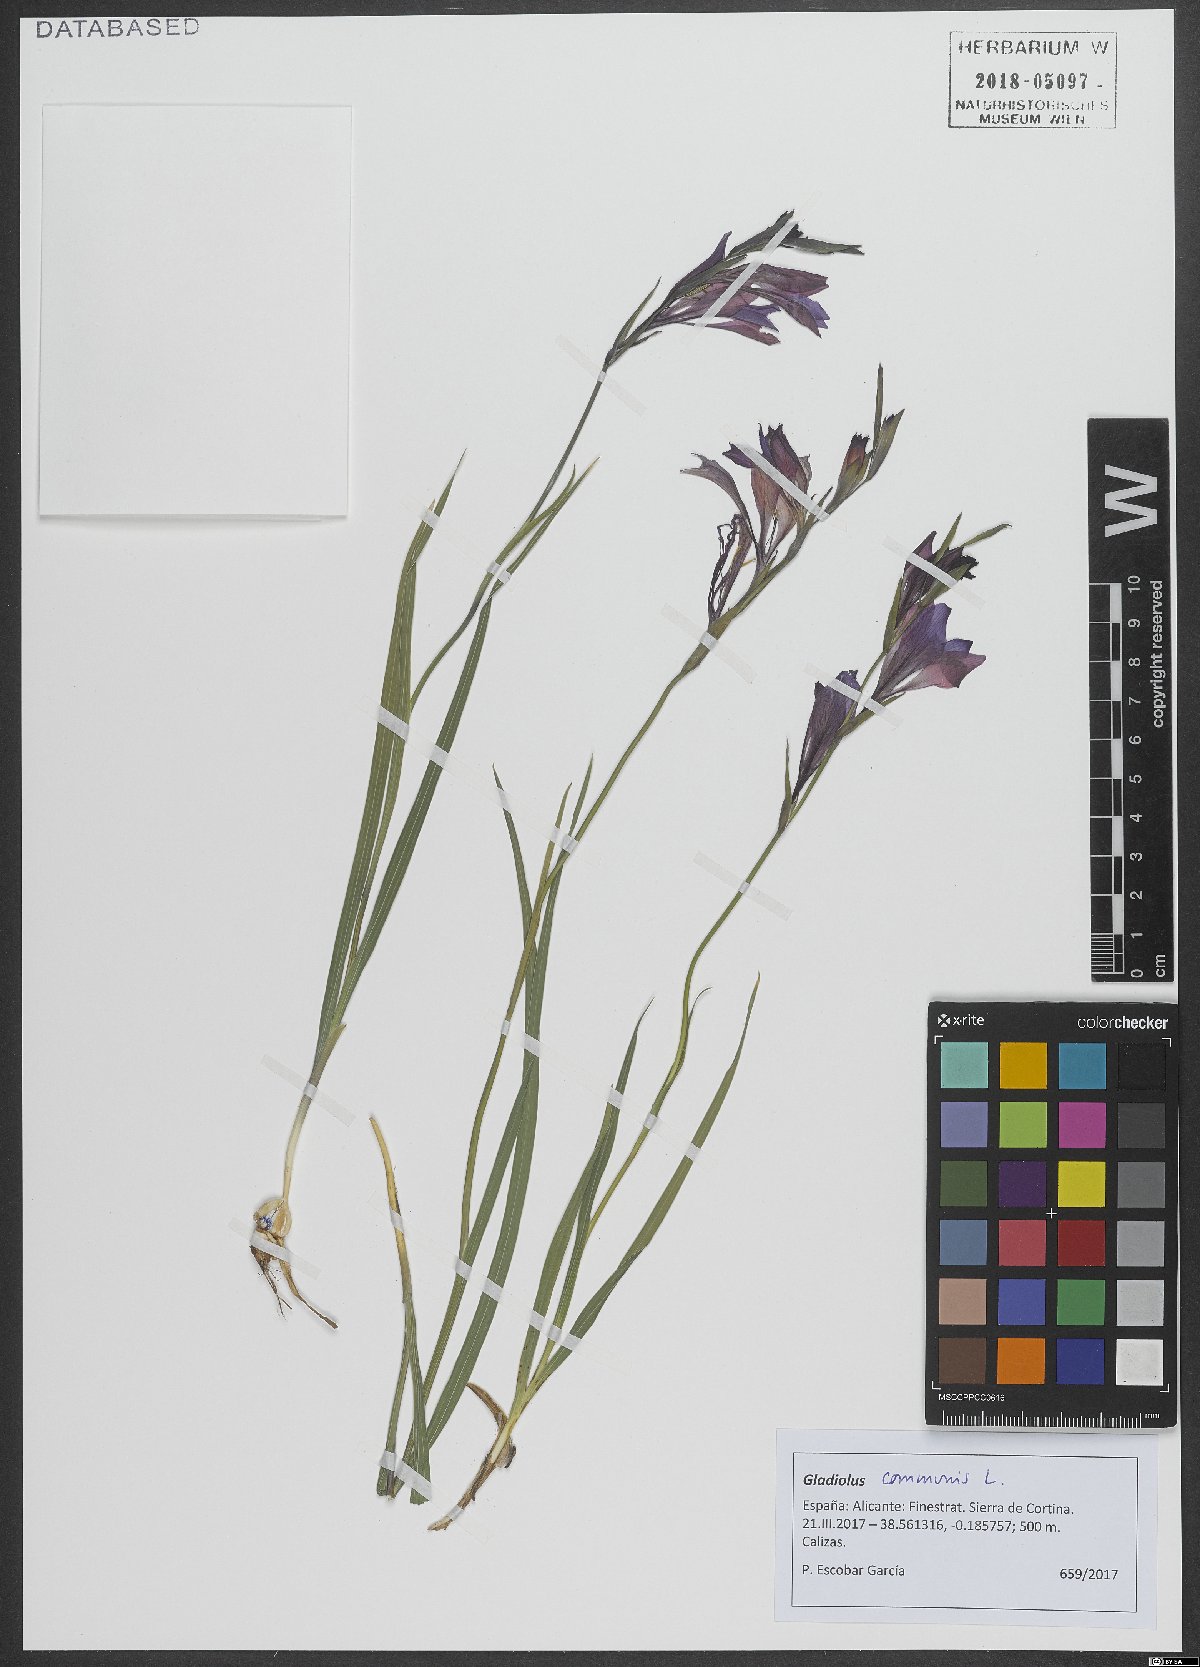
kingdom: Plantae
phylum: Tracheophyta
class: Liliopsida
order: Asparagales
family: Iridaceae
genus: Gladiolus
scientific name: Gladiolus communis
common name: Eastern gladiolus
